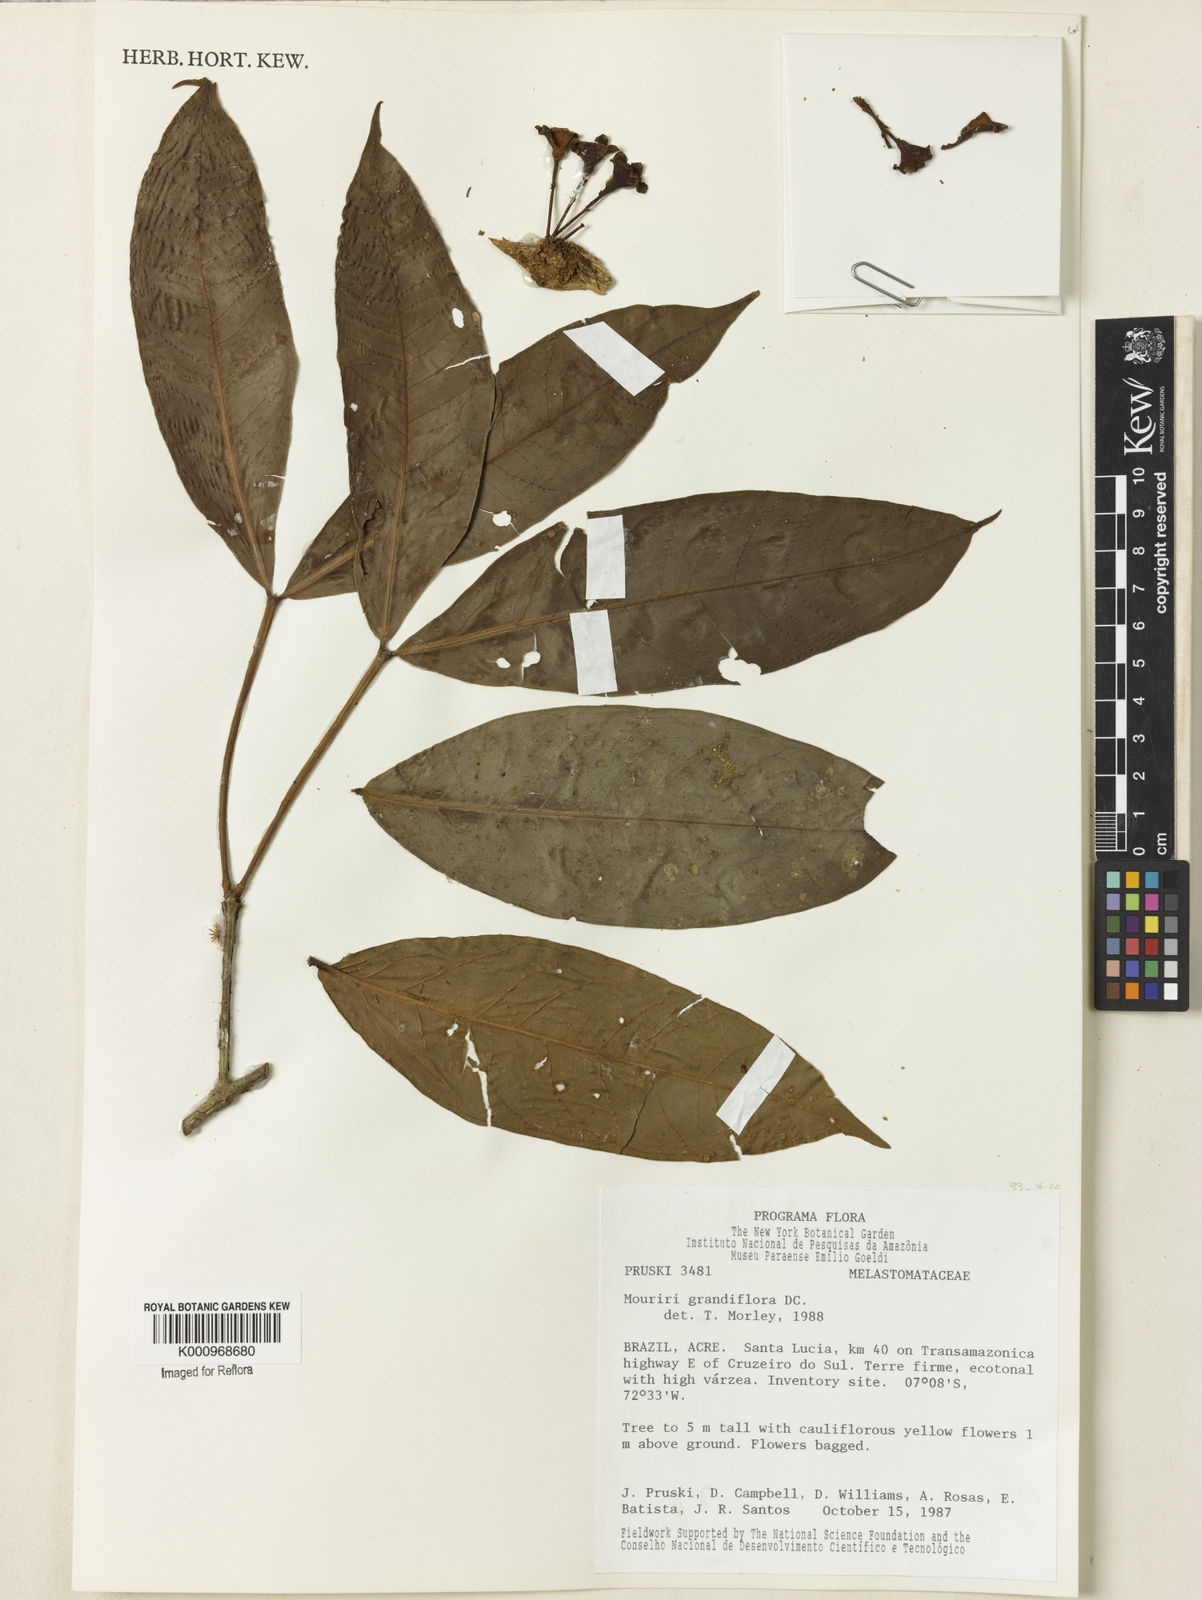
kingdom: Plantae
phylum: Tracheophyta
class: Magnoliopsida
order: Myrtales
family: Melastomataceae
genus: Mouriri
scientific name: Mouriri grandiflora
